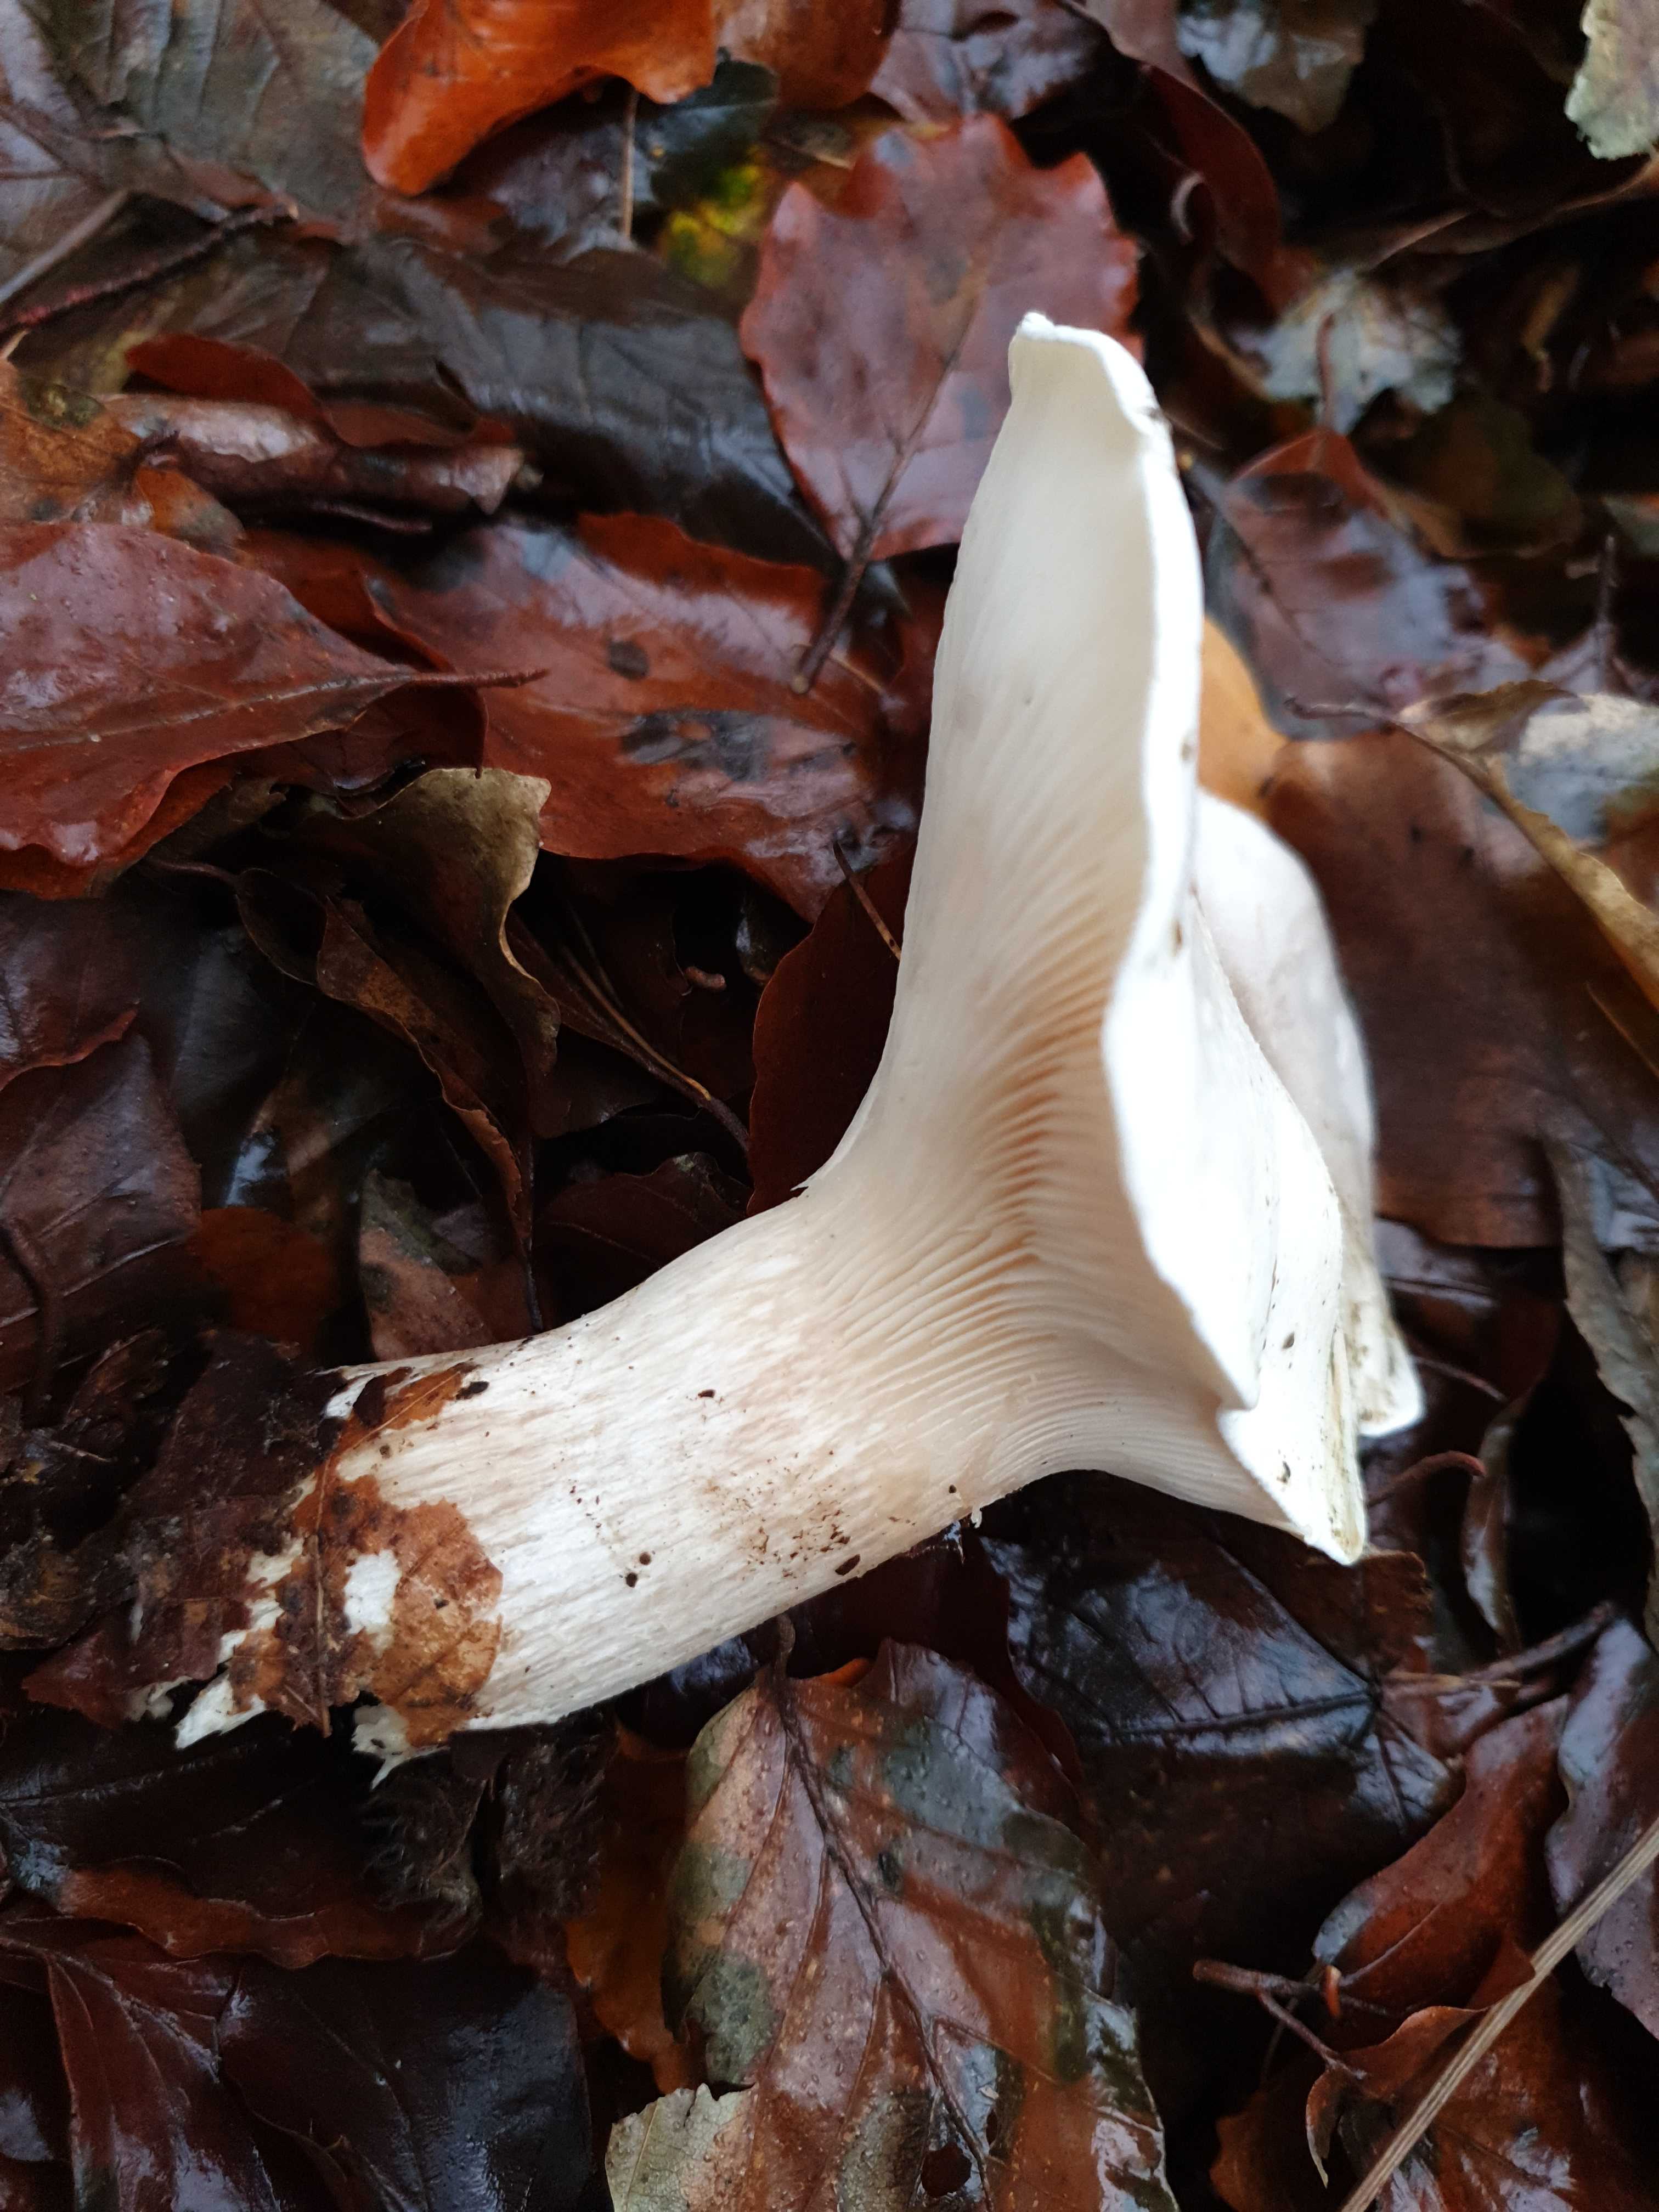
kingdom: Fungi
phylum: Basidiomycota
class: Agaricomycetes
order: Agaricales
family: Tricholomataceae
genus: Clitocybe
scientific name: Clitocybe nebularis
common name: tåge-tragthat
